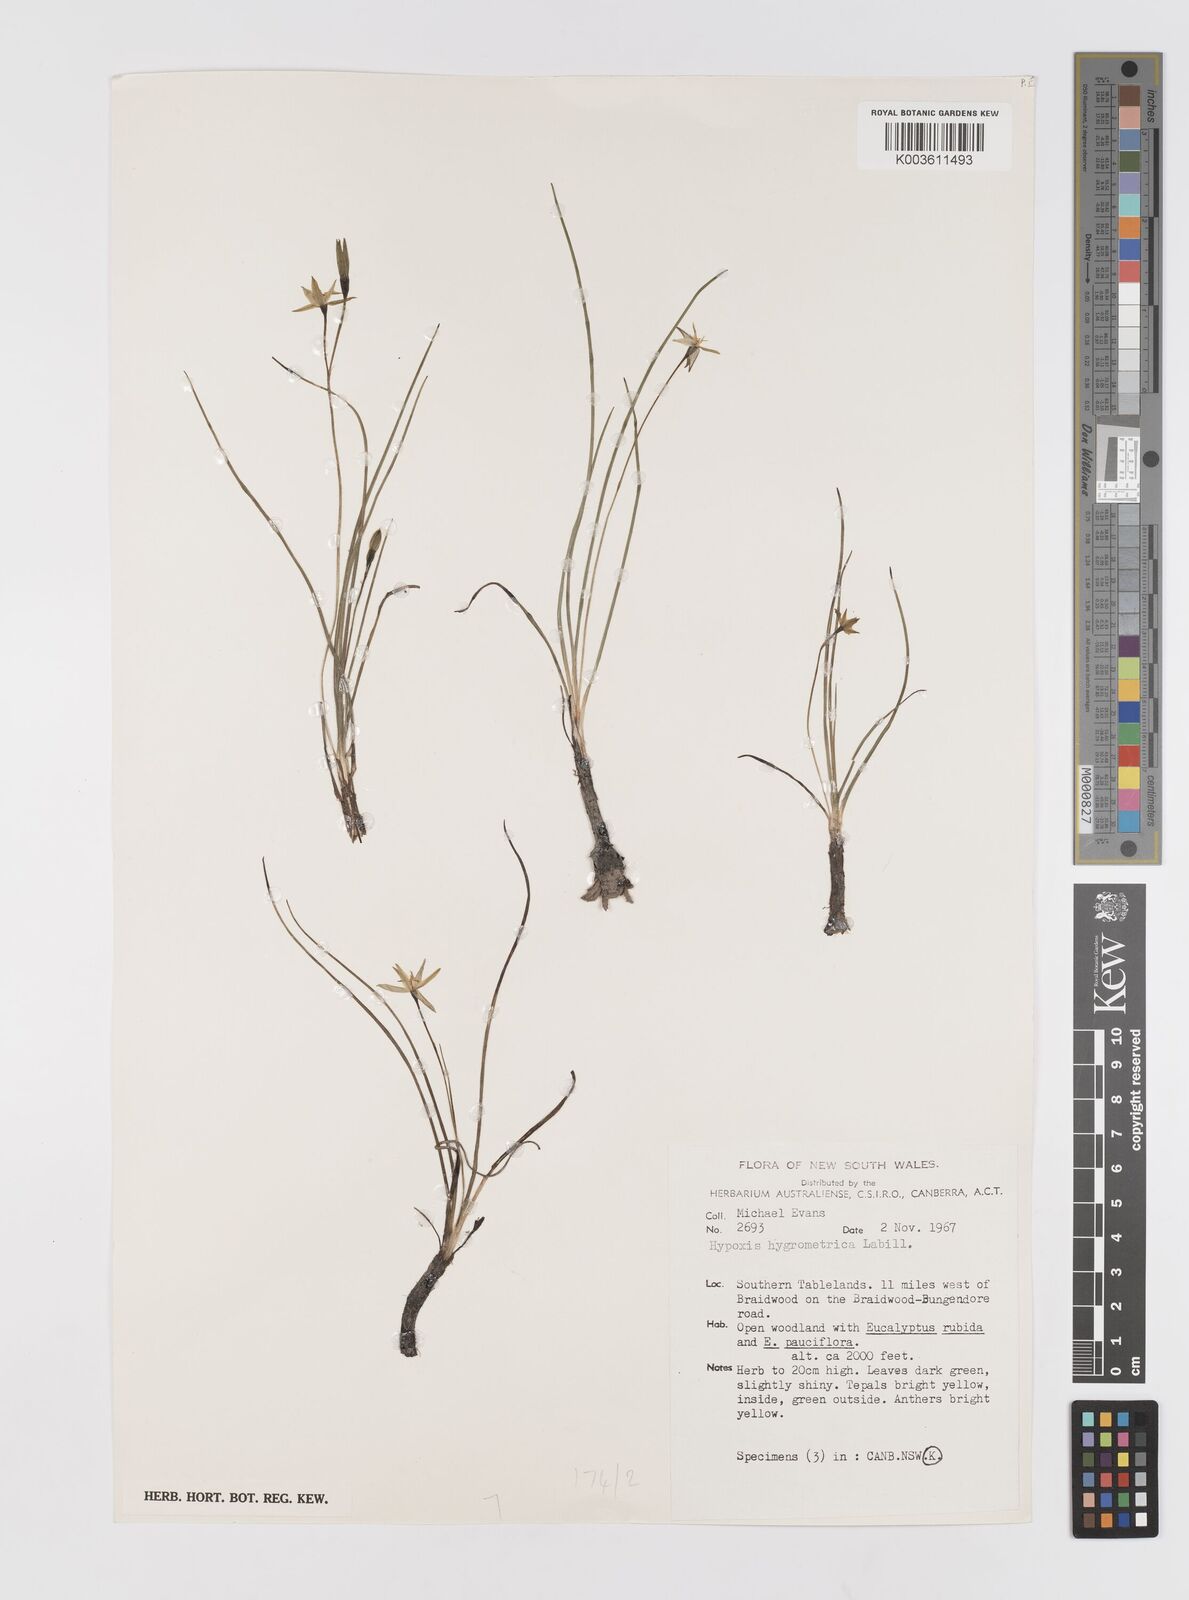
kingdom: Plantae
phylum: Tracheophyta
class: Liliopsida
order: Asparagales
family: Hypoxidaceae
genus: Hypoxis
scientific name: Hypoxis hygrometrica
